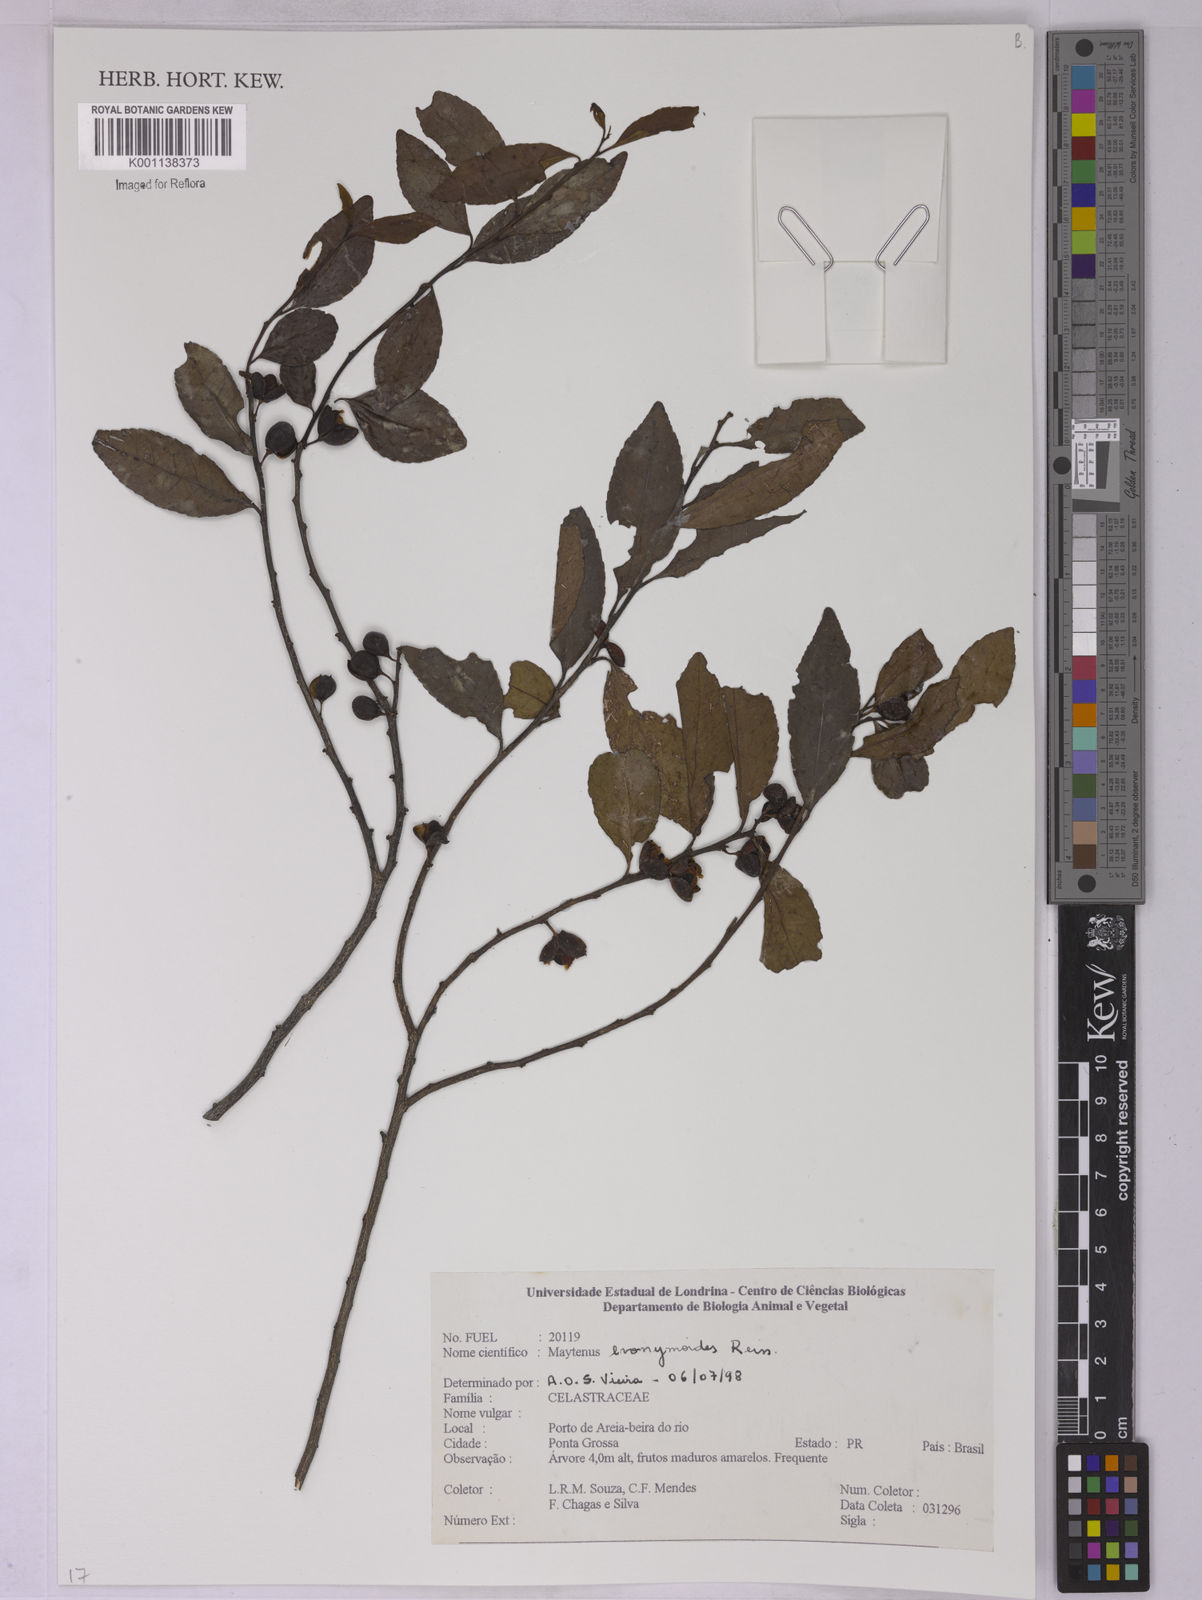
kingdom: Plantae
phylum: Tracheophyta
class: Magnoliopsida
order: Celastrales
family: Celastraceae
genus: Monteverdia
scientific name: Monteverdia evonymoides
